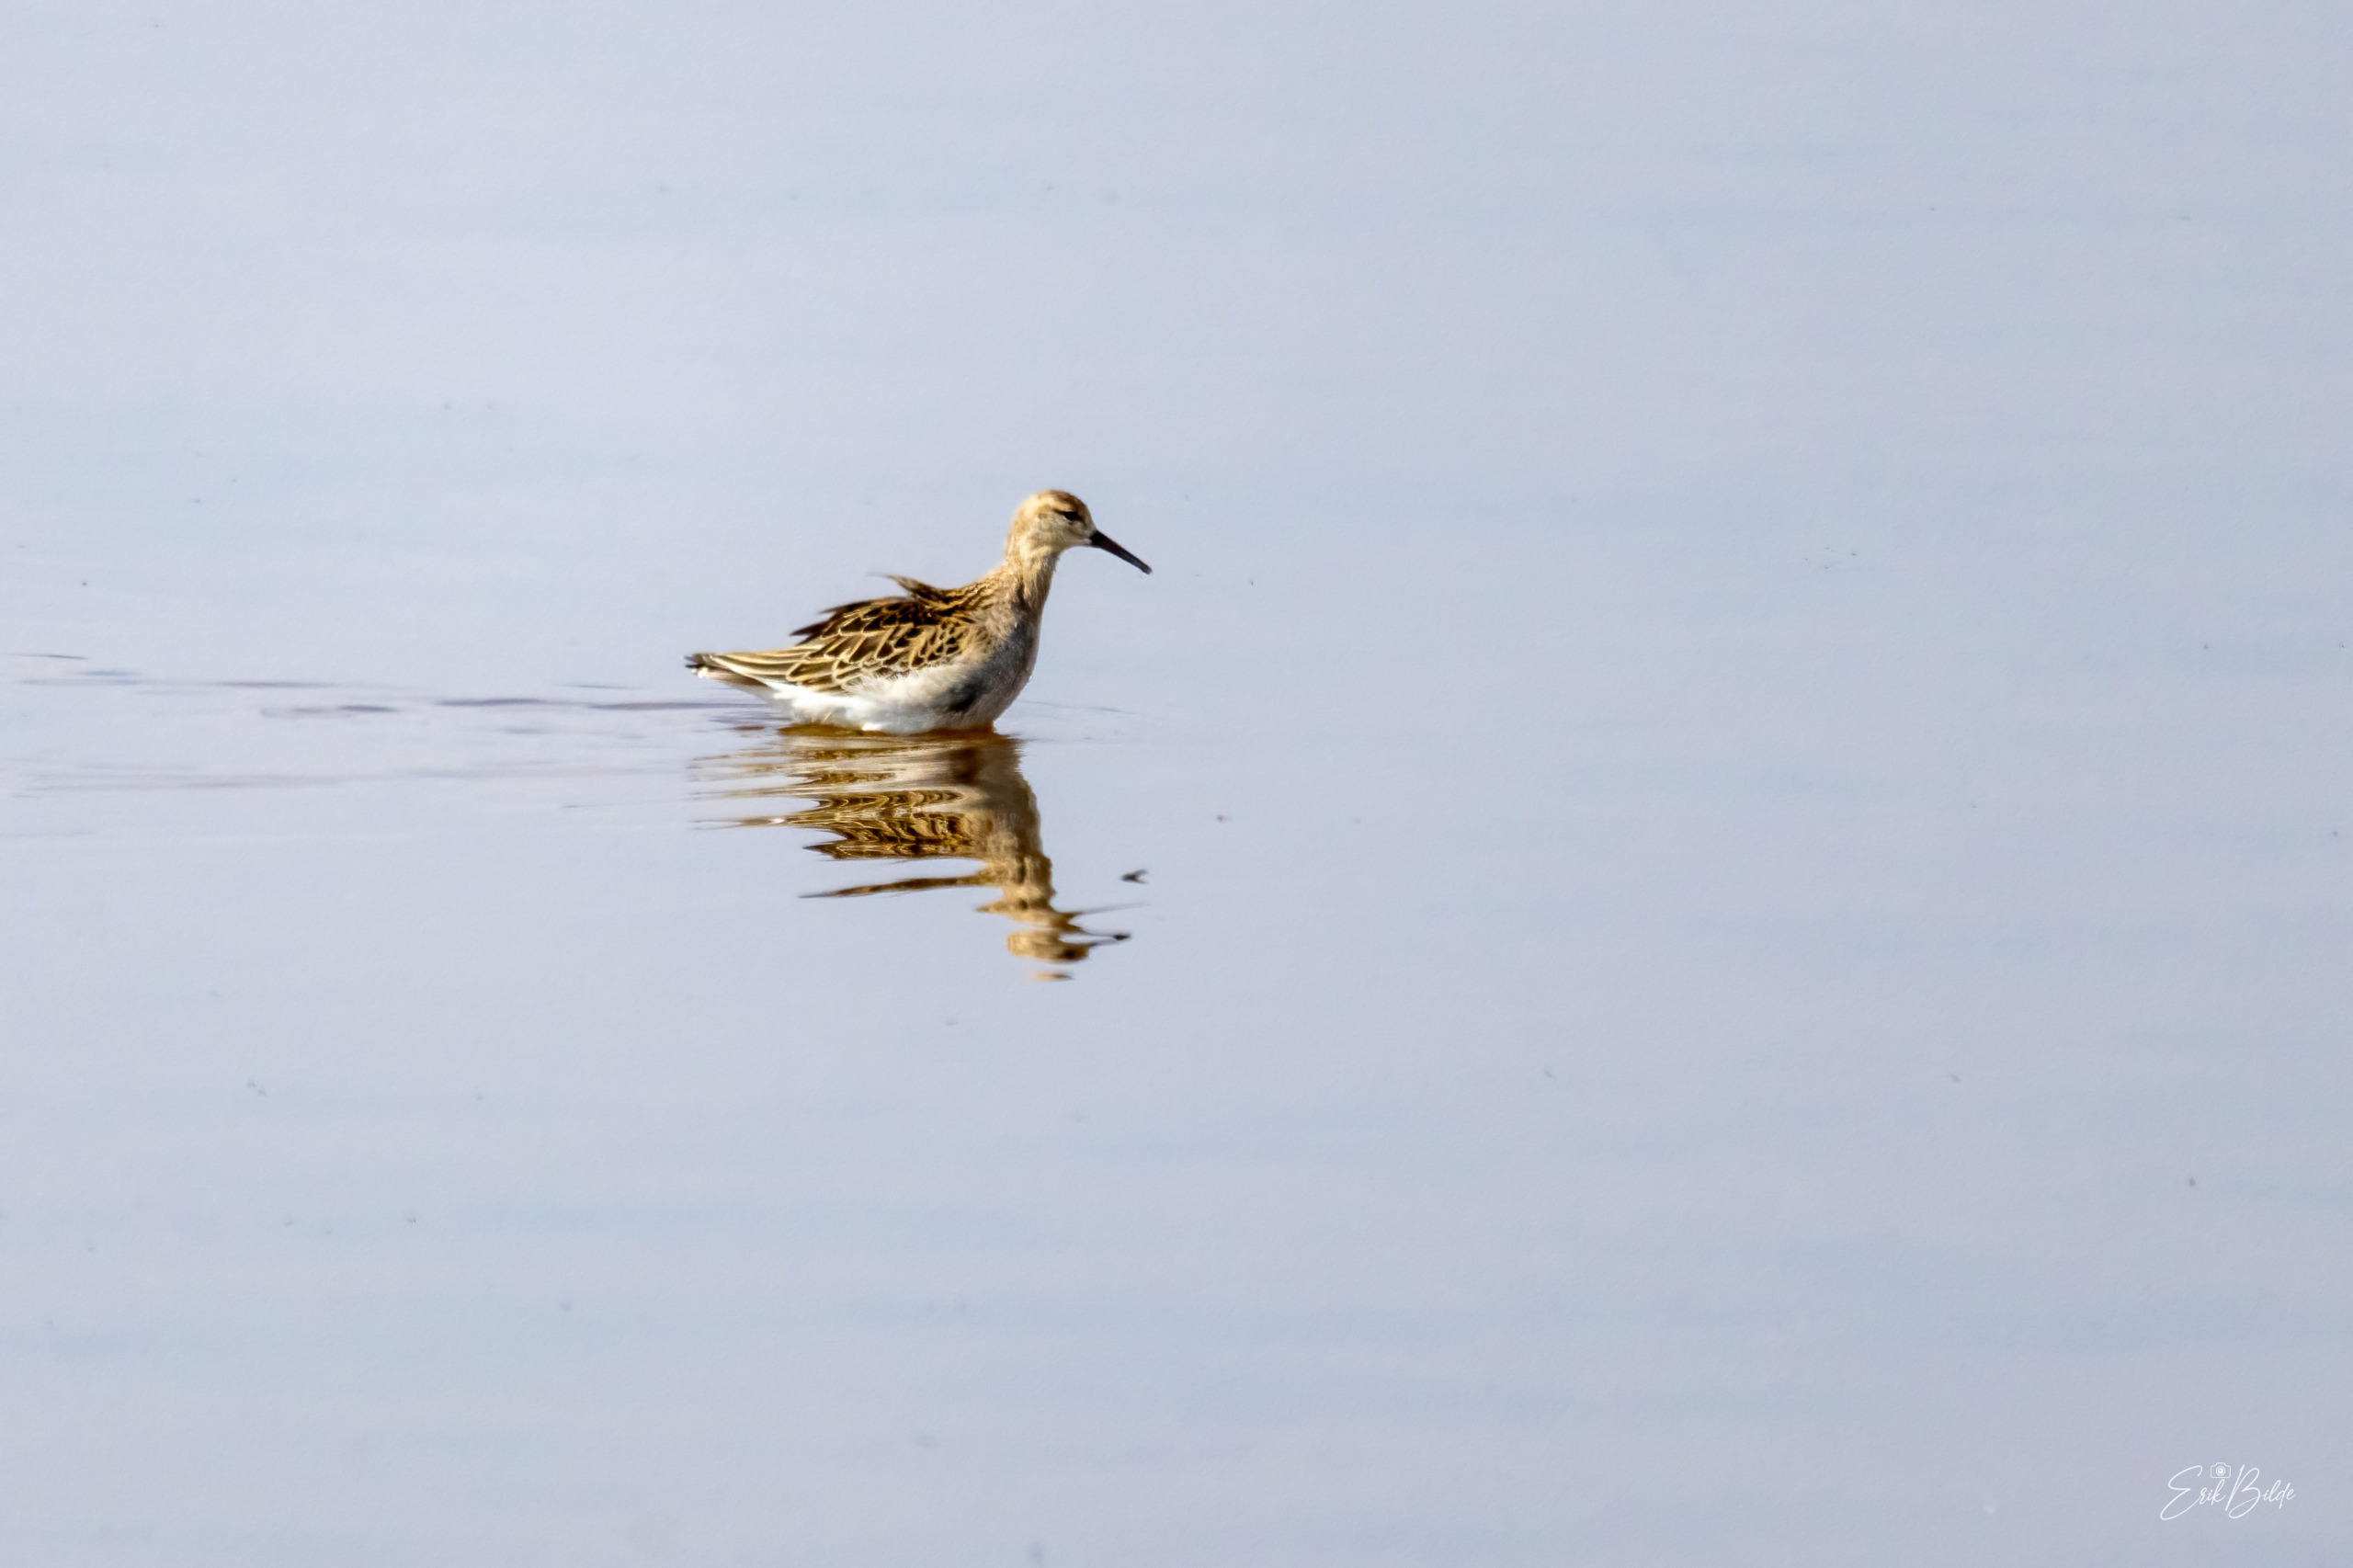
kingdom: Animalia
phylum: Chordata
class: Aves
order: Charadriiformes
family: Scolopacidae
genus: Calidris
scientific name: Calidris pugnax
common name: Brushane
